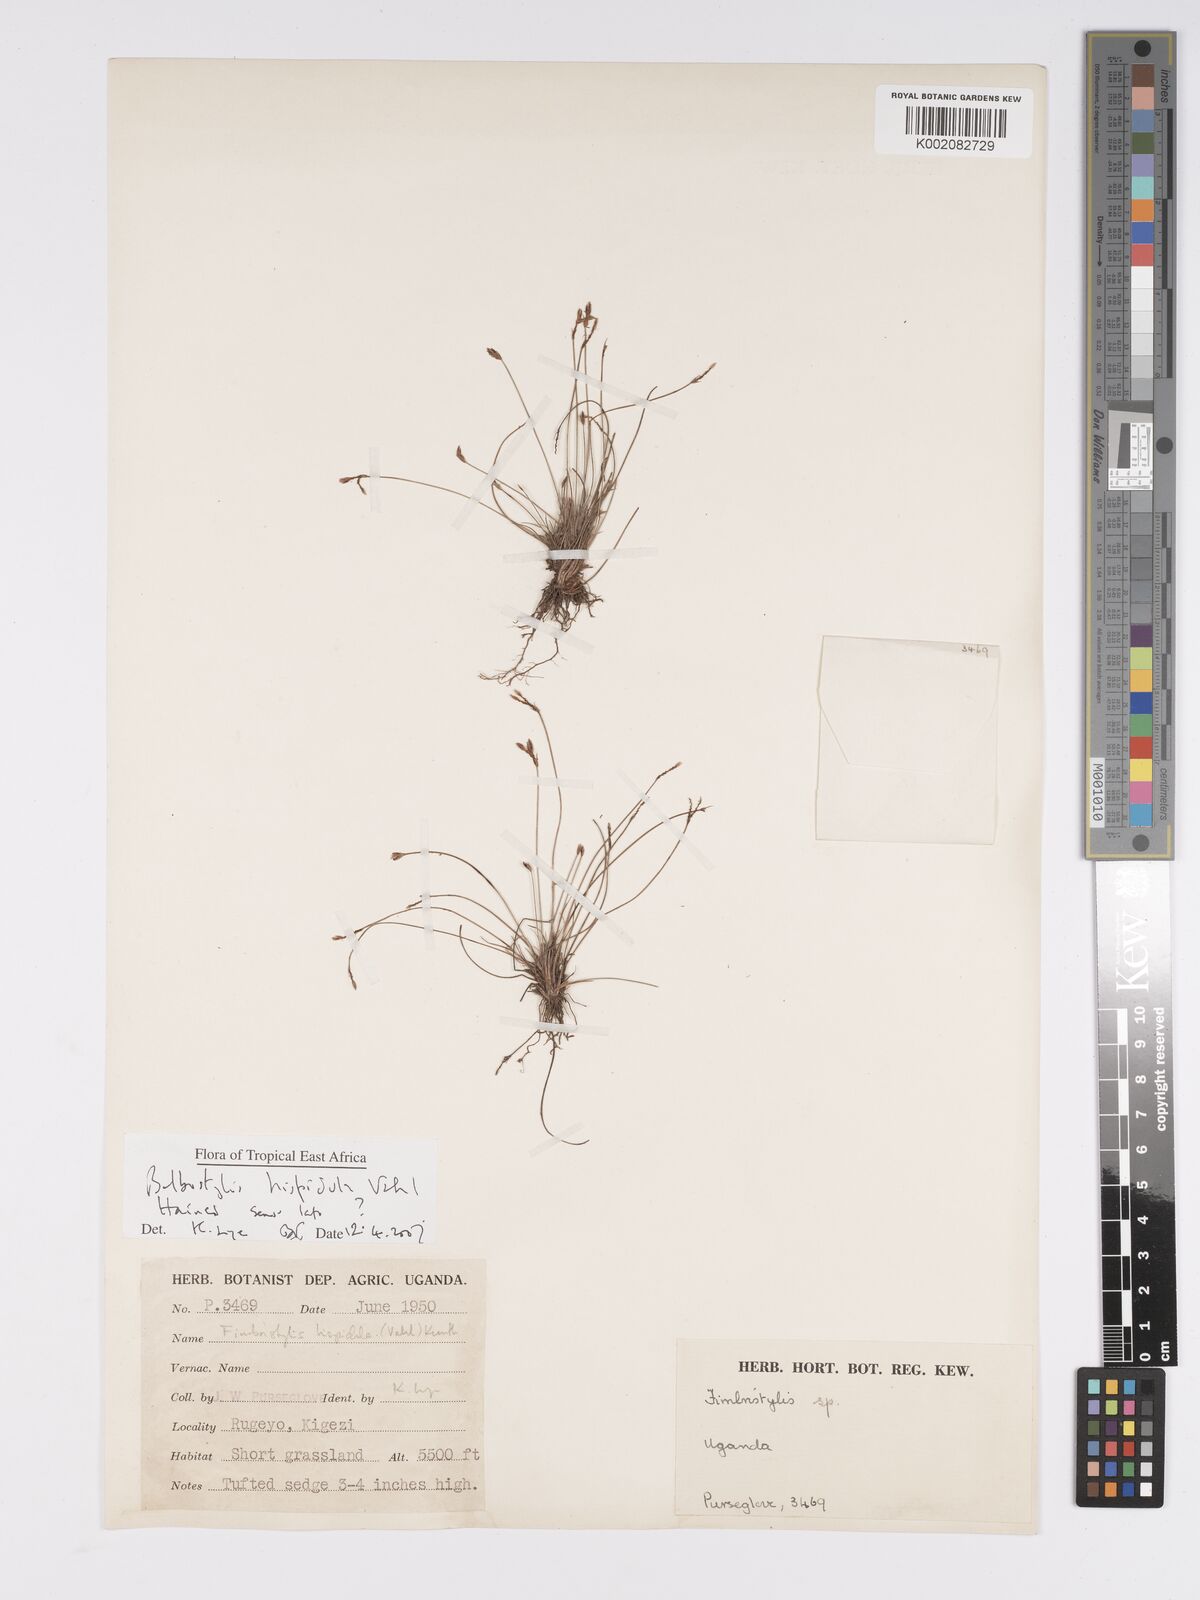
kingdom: Plantae
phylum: Tracheophyta
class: Liliopsida
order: Poales
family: Cyperaceae
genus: Bulbostylis
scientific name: Bulbostylis
